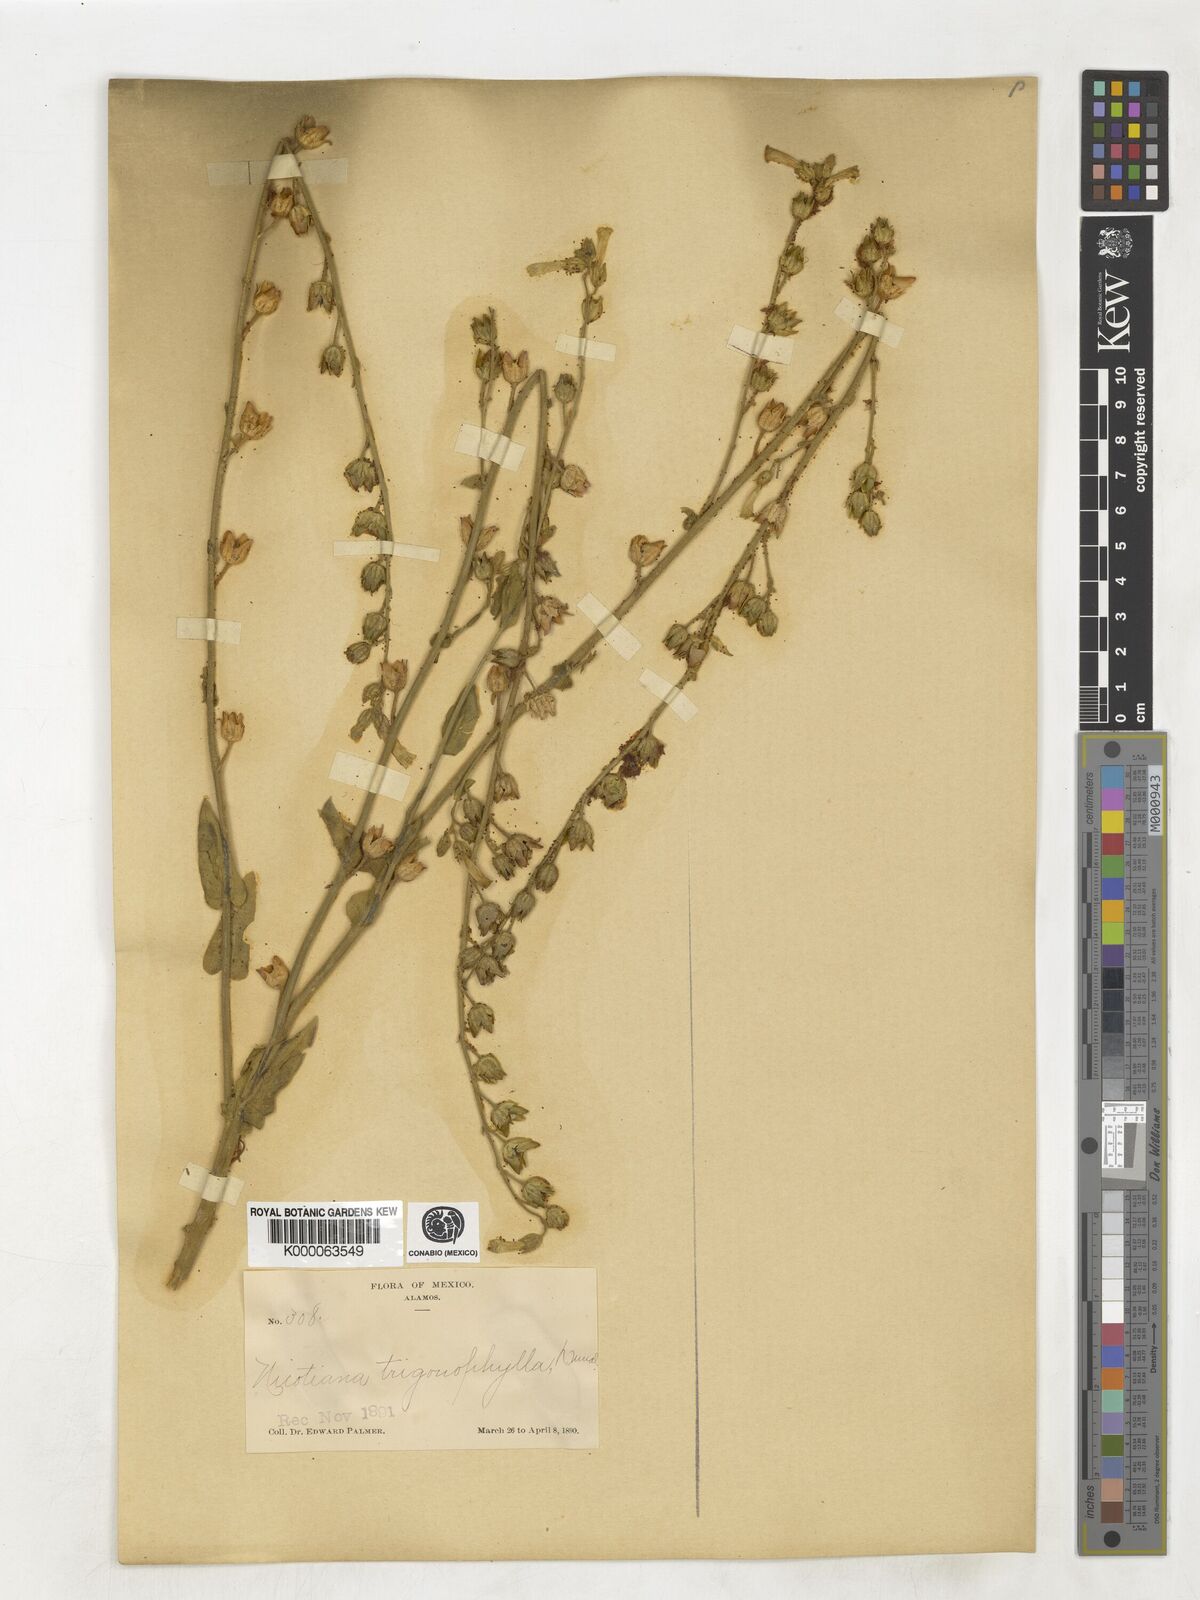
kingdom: Plantae
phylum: Tracheophyta
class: Magnoliopsida
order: Solanales
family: Solanaceae
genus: Nicotiana
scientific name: Nicotiana obtusifolia
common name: Desert tobacco
